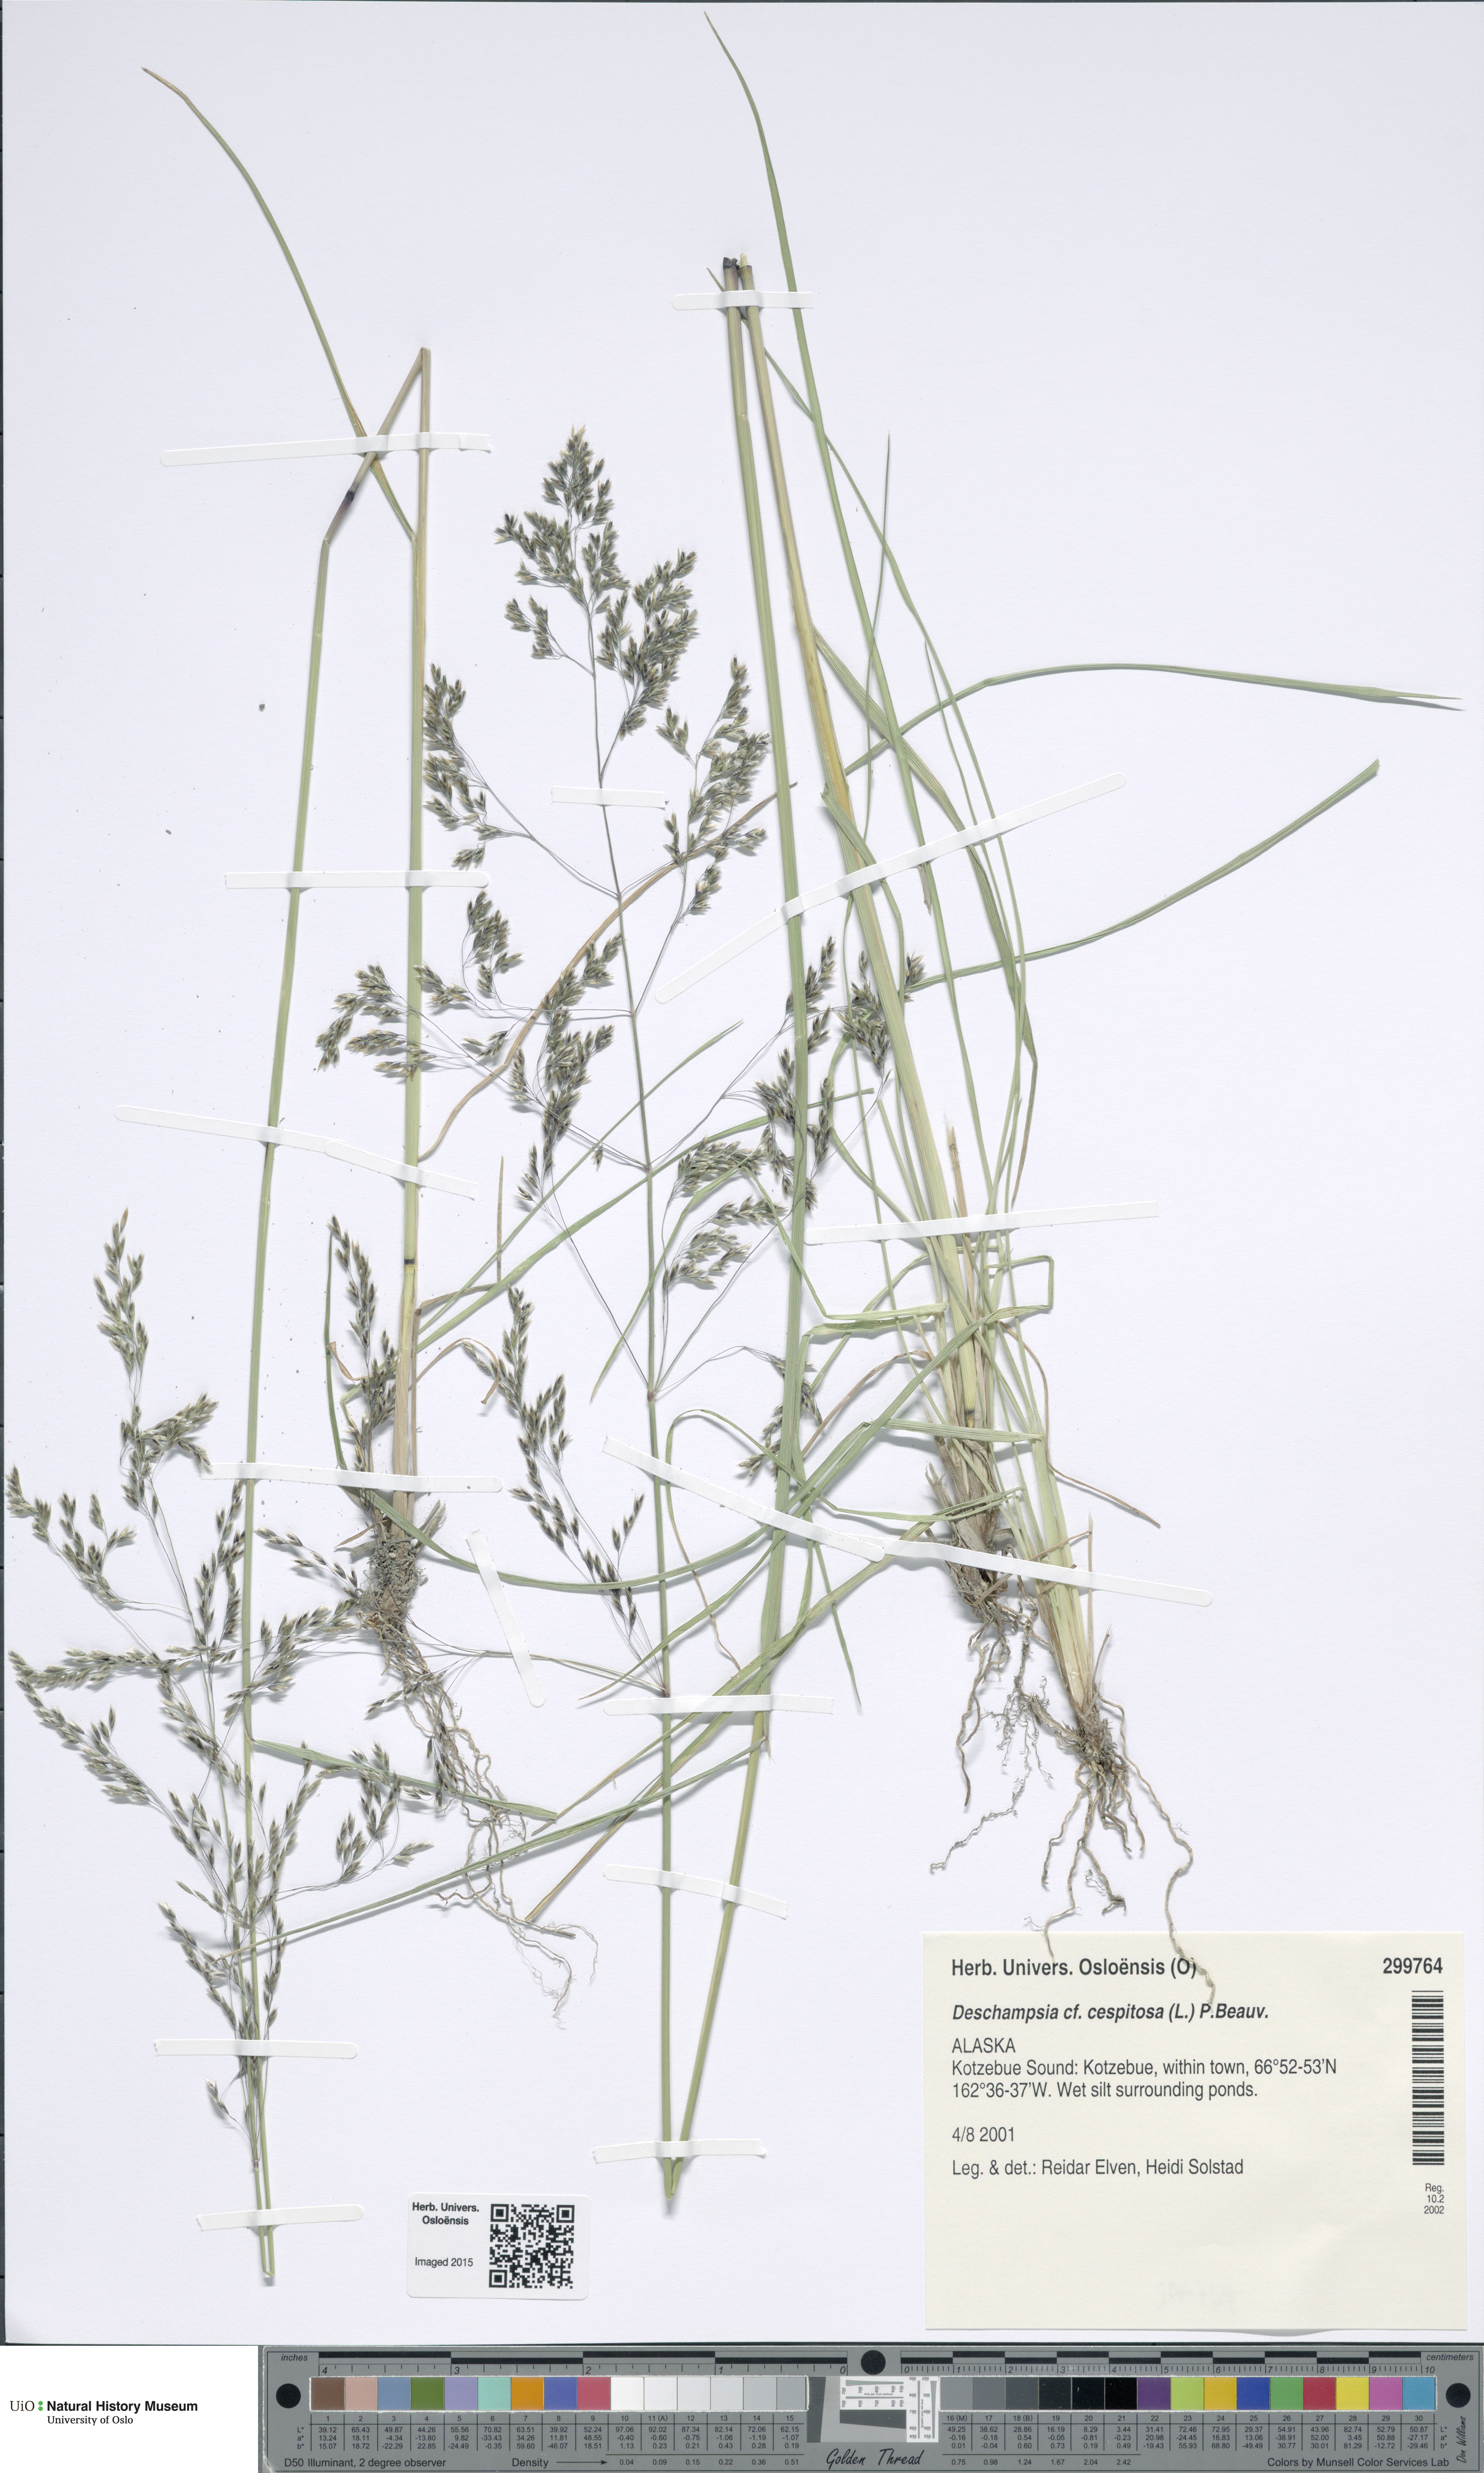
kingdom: Plantae
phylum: Tracheophyta
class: Liliopsida
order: Poales
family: Poaceae
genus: Deschampsia
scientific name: Deschampsia cespitosa
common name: Tufted hair-grass
